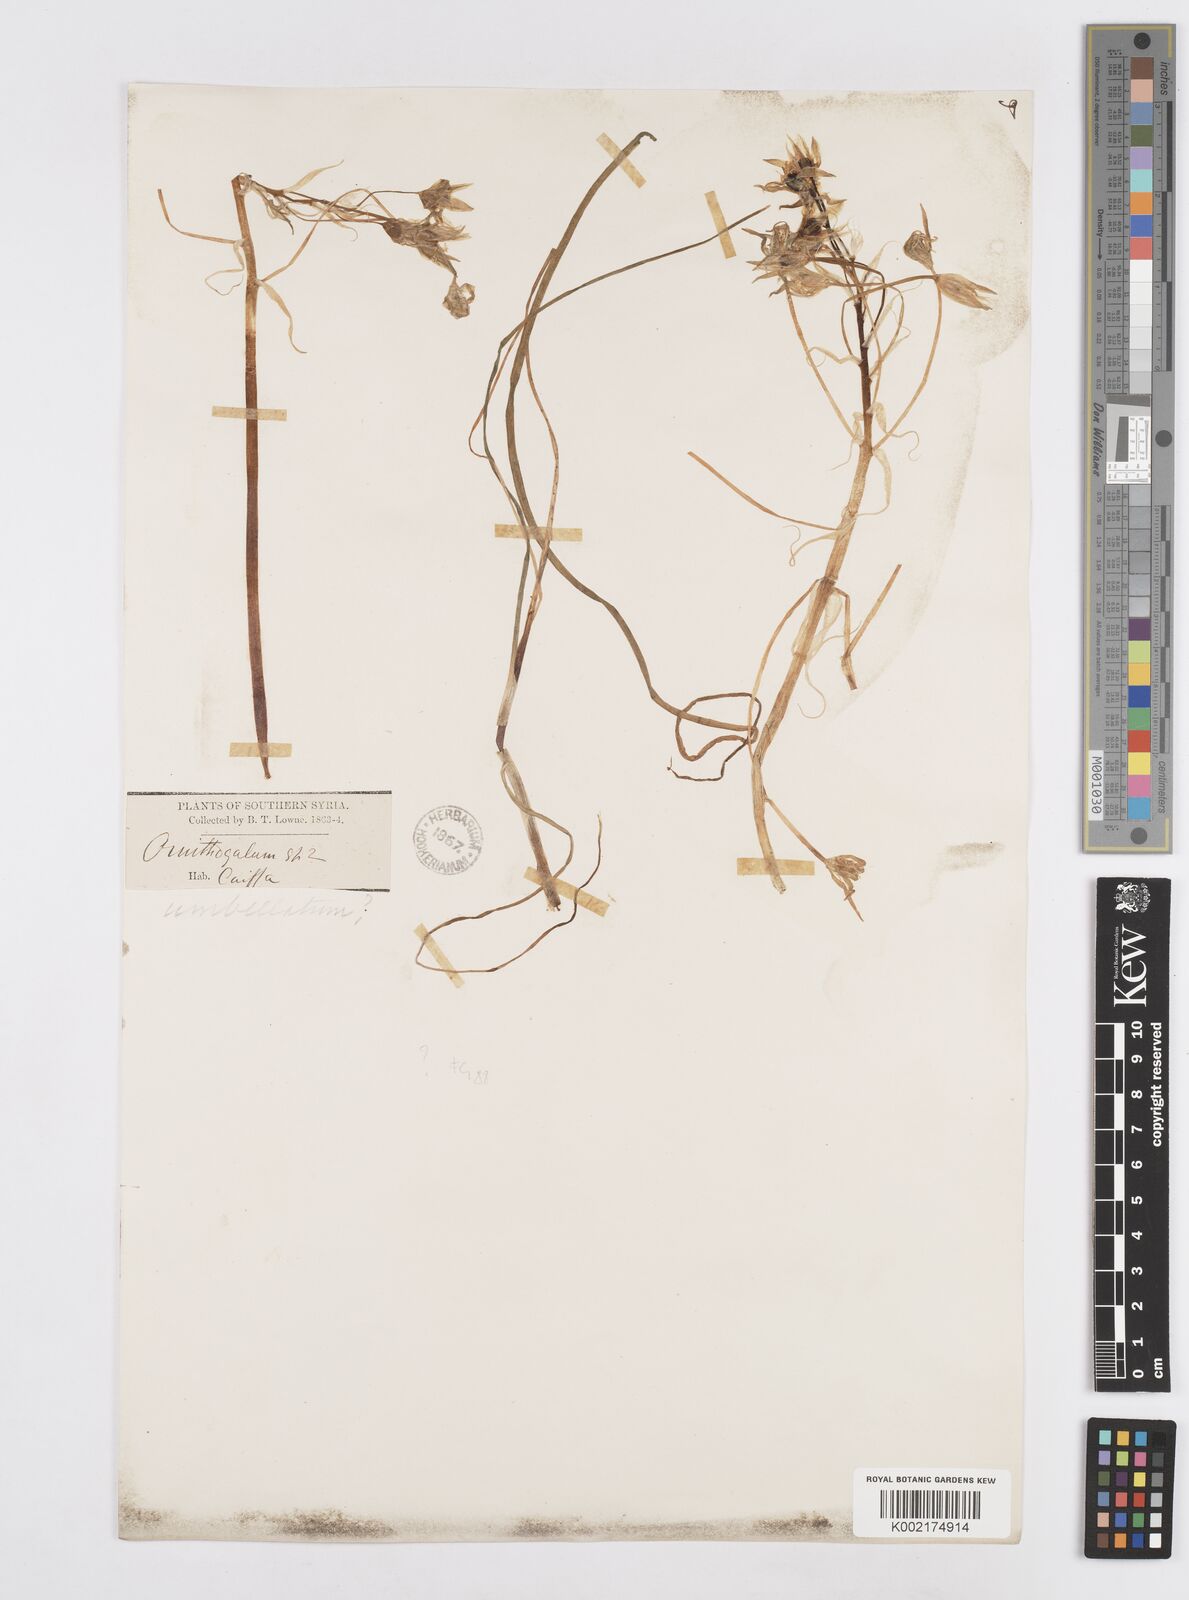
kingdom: Plantae
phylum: Tracheophyta
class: Liliopsida
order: Asparagales
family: Asparagaceae
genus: Ornithogalum
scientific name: Ornithogalum umbellatum
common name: Garden star-of-bethlehem
